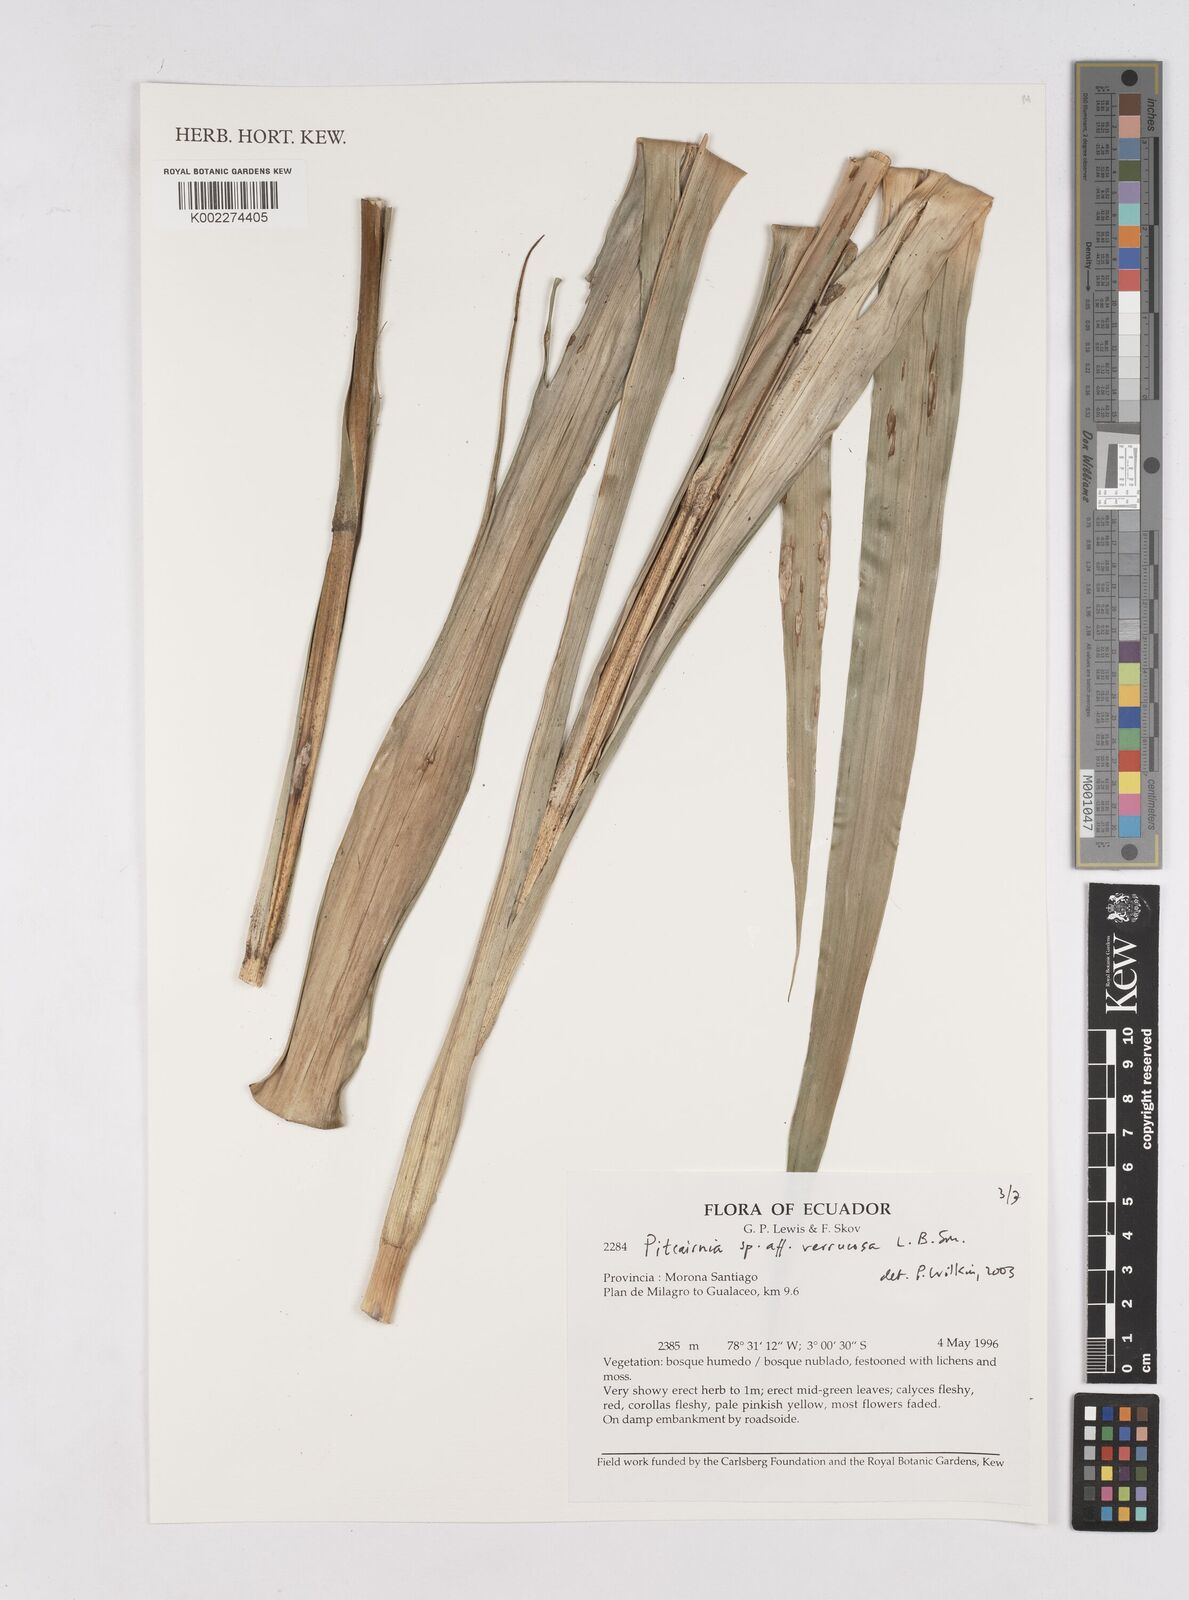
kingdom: Plantae
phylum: Tracheophyta
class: Liliopsida
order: Poales
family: Bromeliaceae
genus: Pitcairnia
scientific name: Pitcairnia verrucosa
